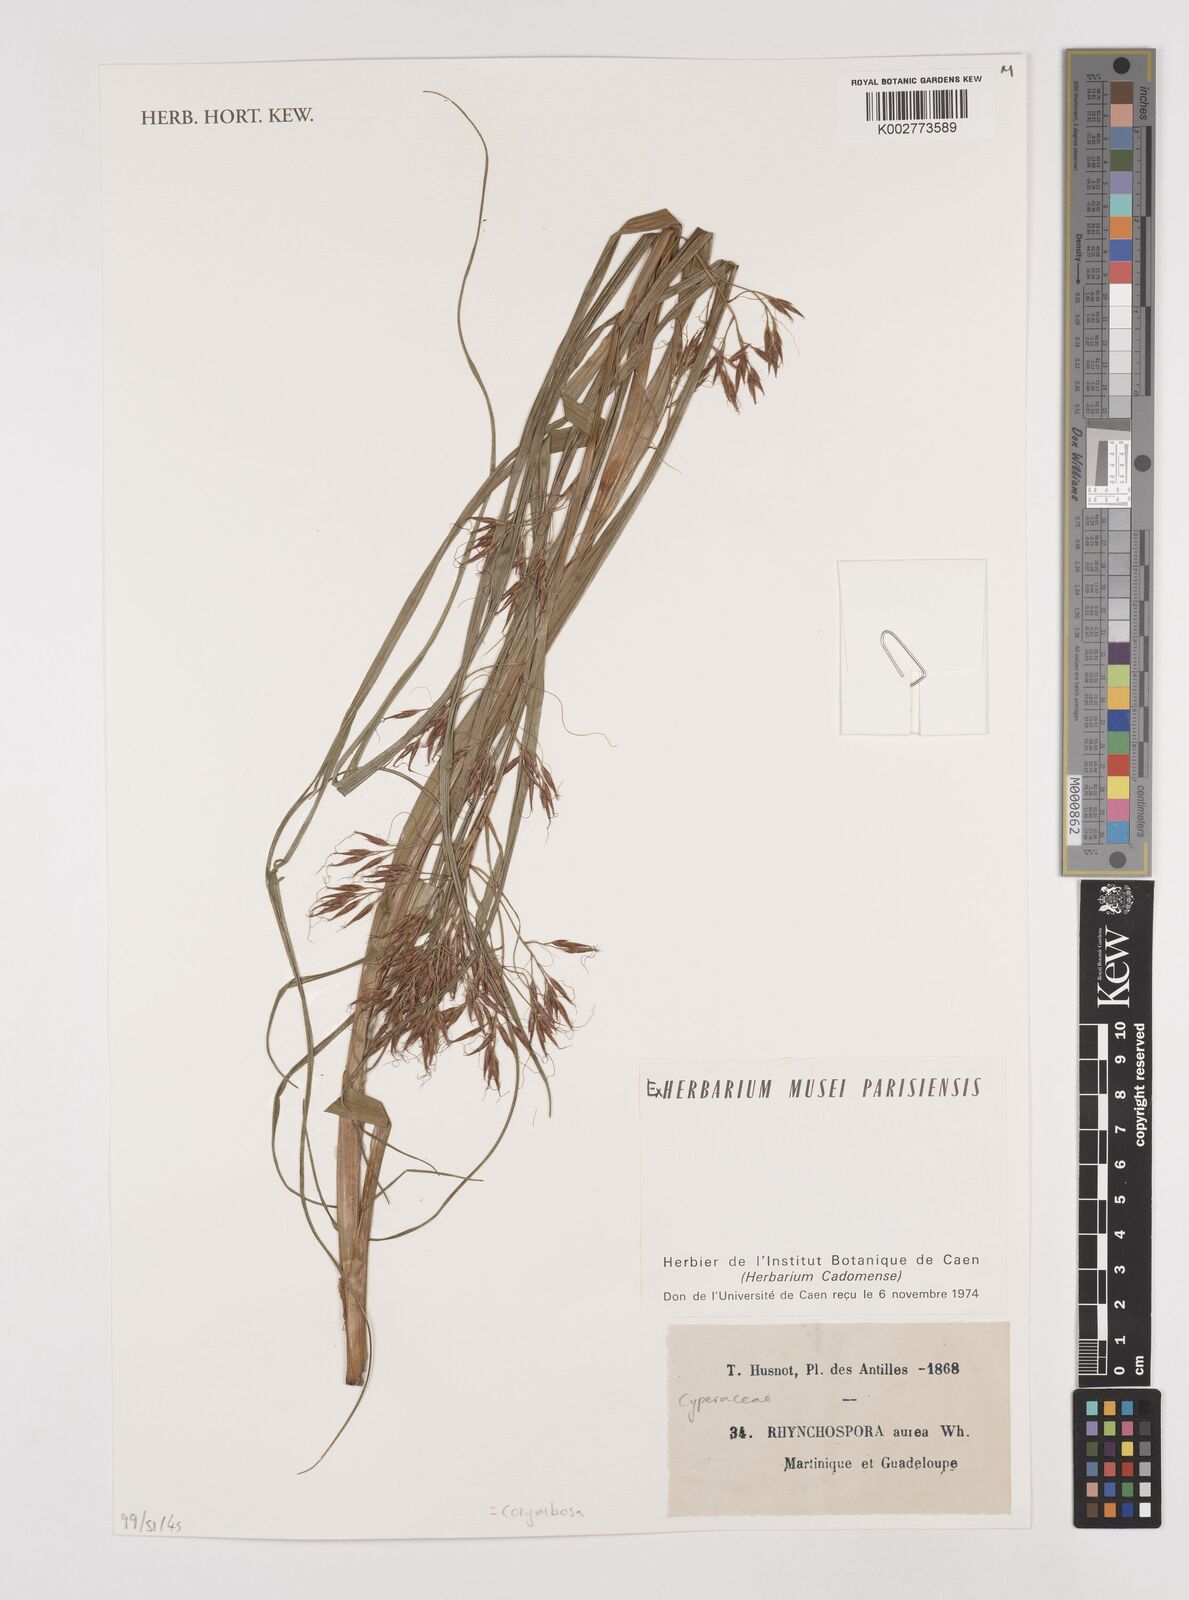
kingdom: Plantae
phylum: Tracheophyta
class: Liliopsida
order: Poales
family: Cyperaceae
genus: Rhynchospora
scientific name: Rhynchospora corymbosa
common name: Golden beak sedge
